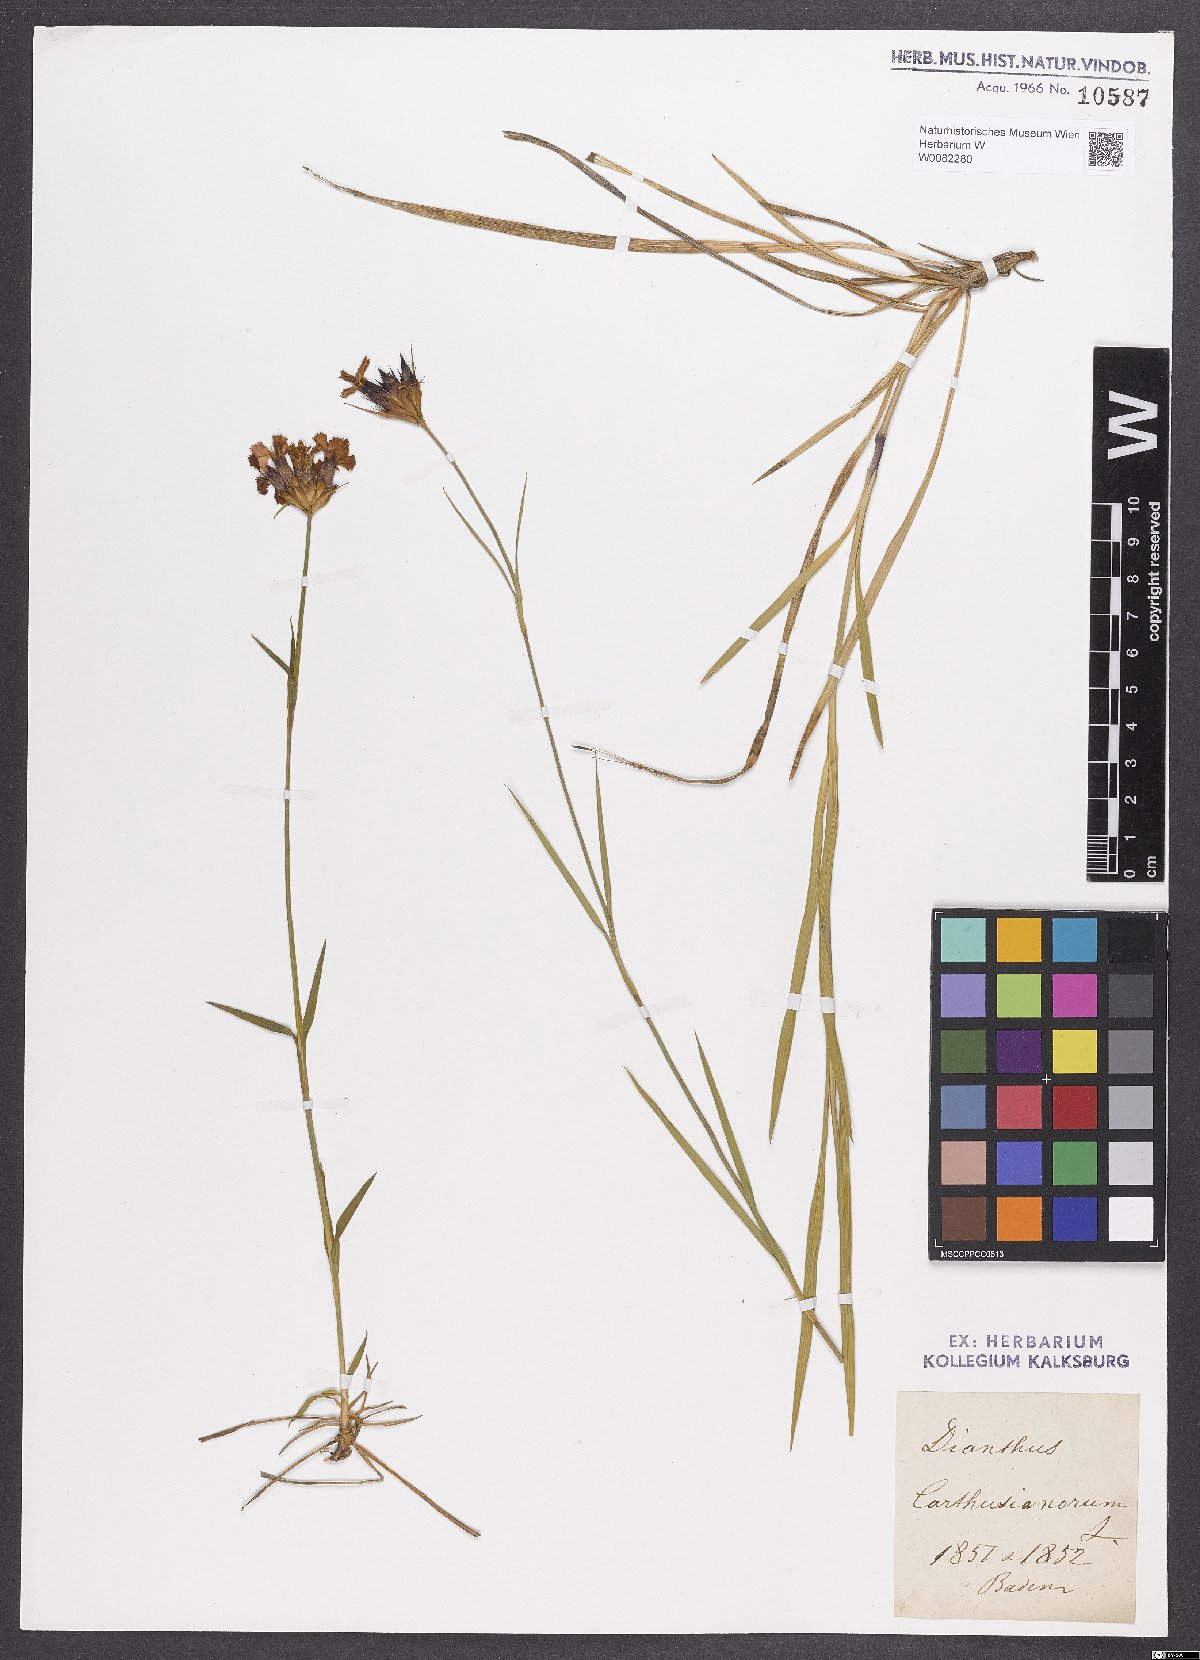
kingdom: Plantae
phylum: Tracheophyta
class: Magnoliopsida
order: Caryophyllales
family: Caryophyllaceae
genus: Dianthus
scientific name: Dianthus carthusianorum
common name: Carthusian pink
